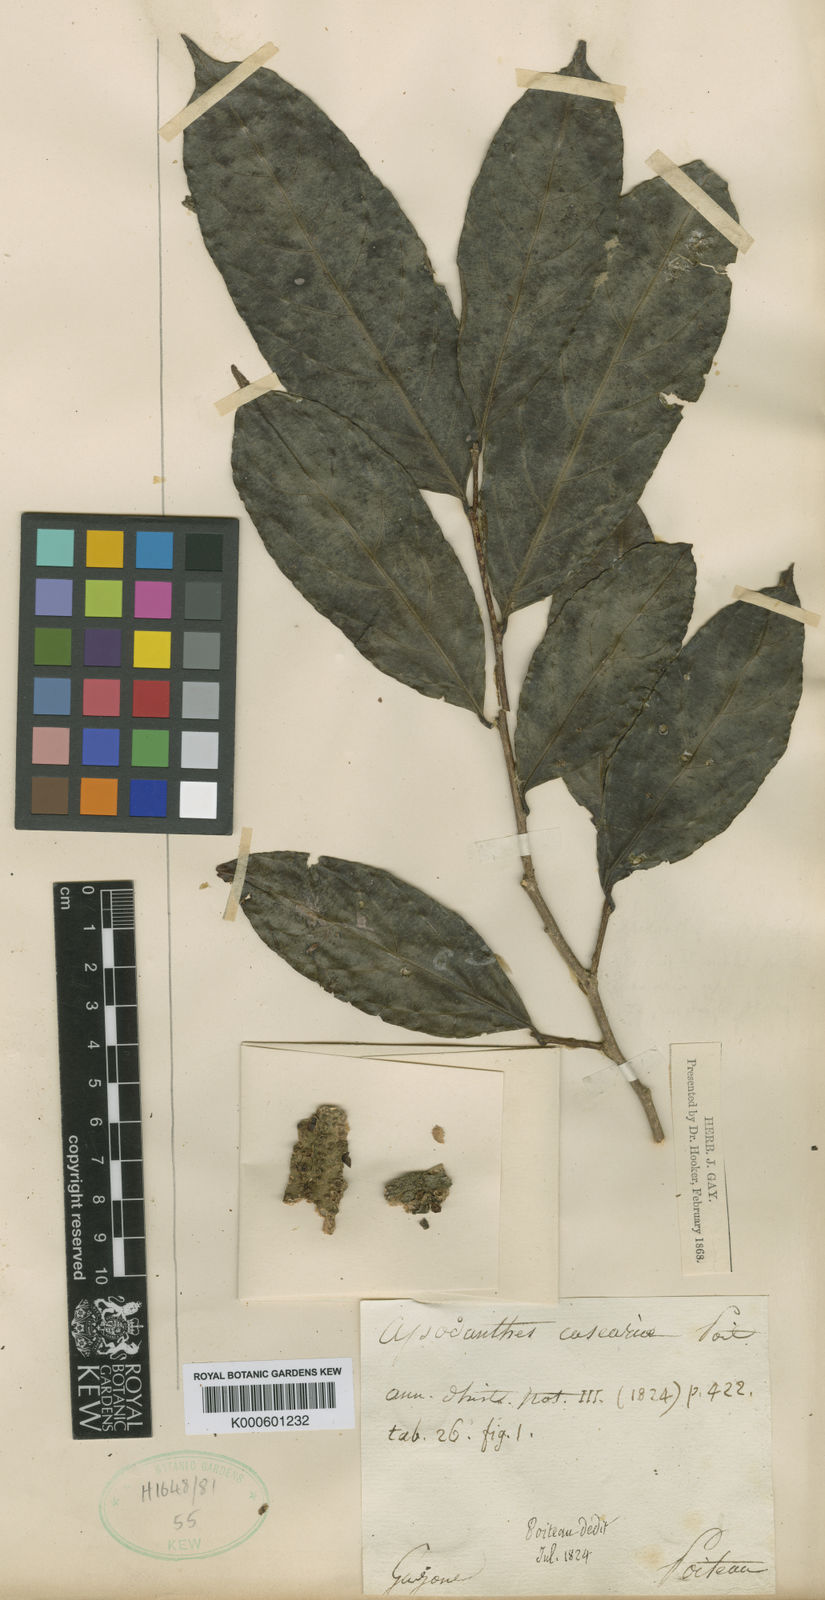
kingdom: Plantae
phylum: Tracheophyta
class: Magnoliopsida
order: Cucurbitales
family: Apodanthaceae
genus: Apodanthes
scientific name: Apodanthes caseariae
